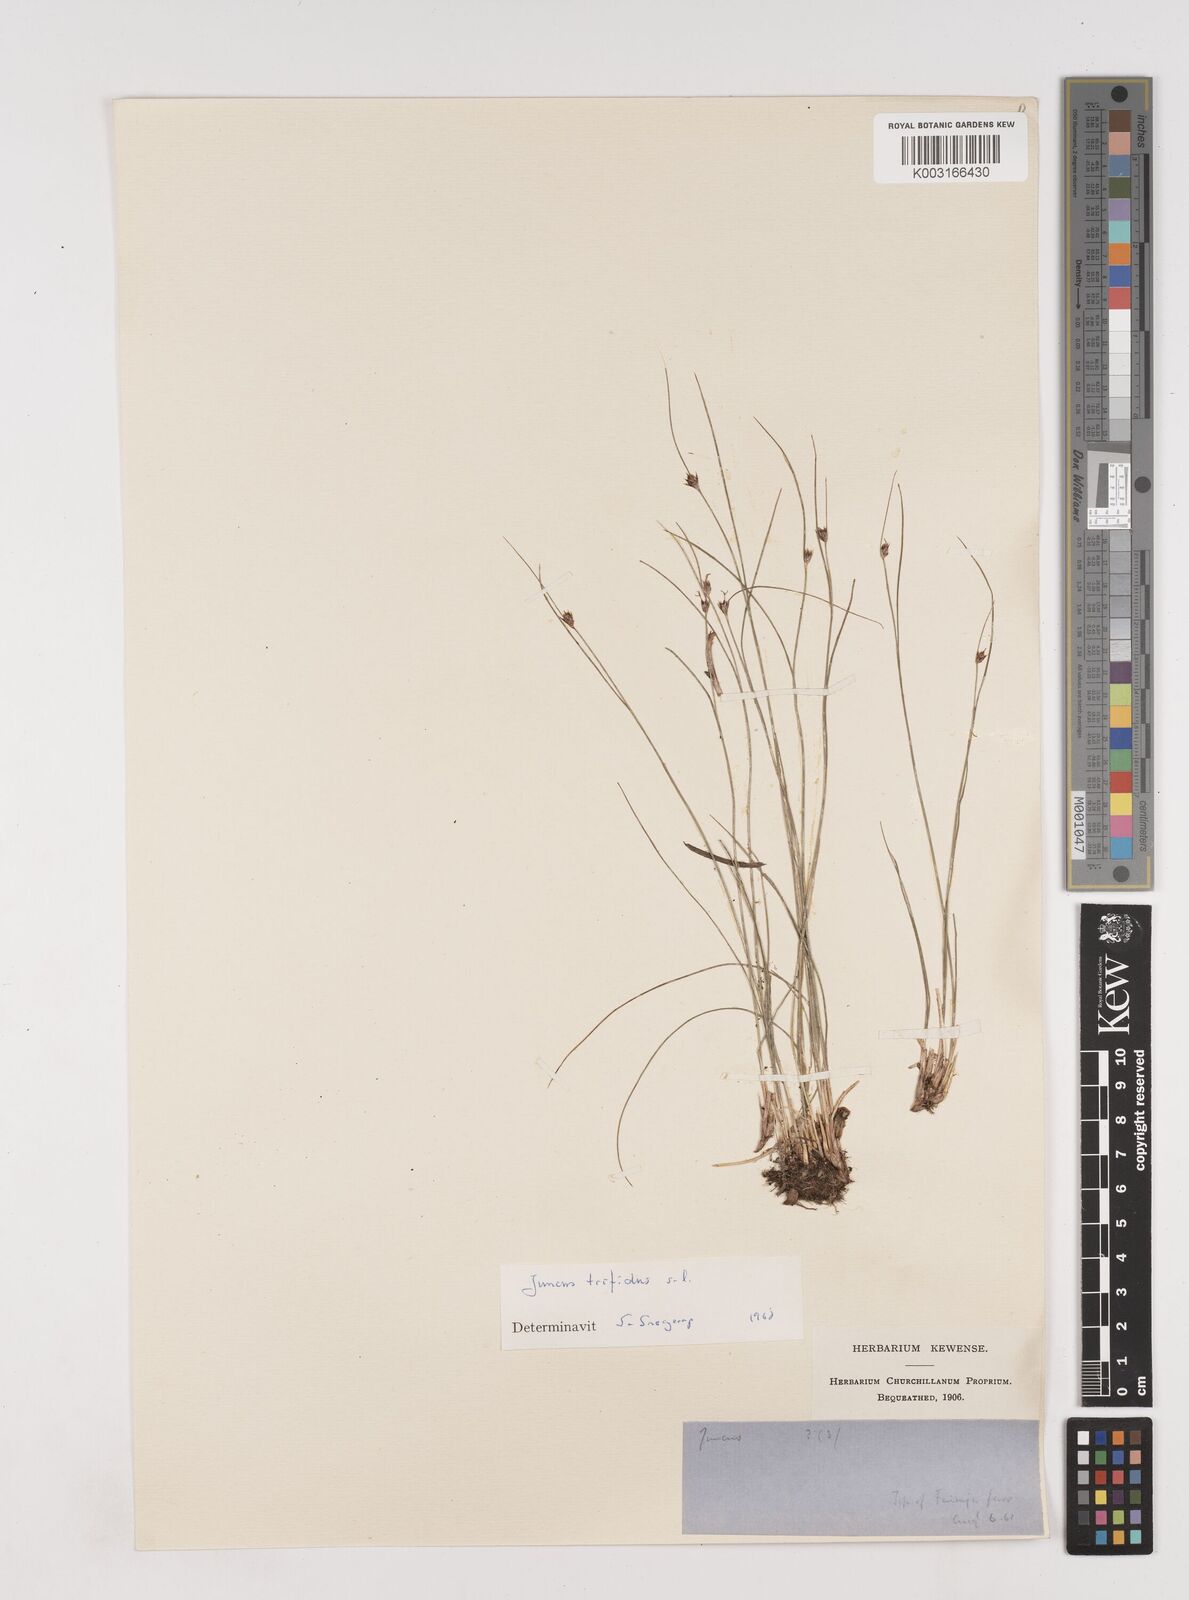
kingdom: Plantae
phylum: Tracheophyta
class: Liliopsida
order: Poales
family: Juncaceae
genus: Oreojuncus
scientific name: Oreojuncus trifidus
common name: Highland rush
